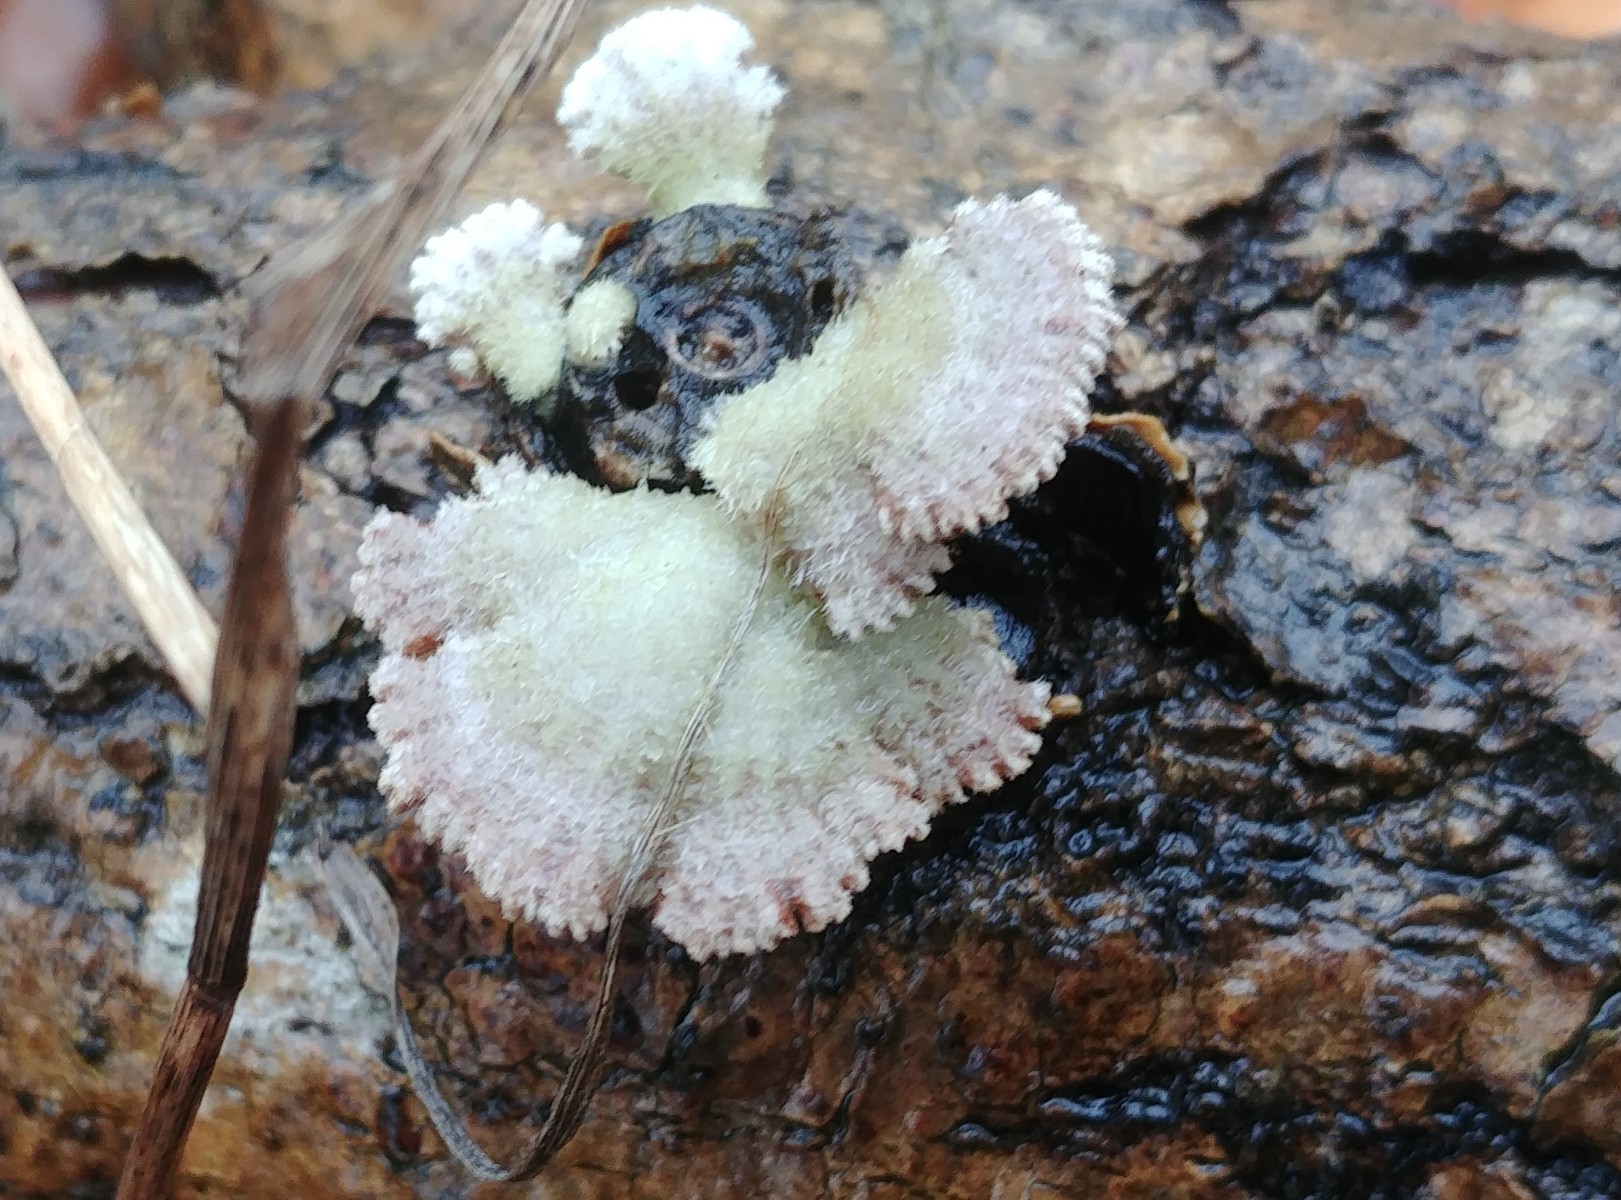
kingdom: Fungi
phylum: Basidiomycota
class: Agaricomycetes
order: Agaricales
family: Schizophyllaceae
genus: Schizophyllum
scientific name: Schizophyllum commune
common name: kløvblad
